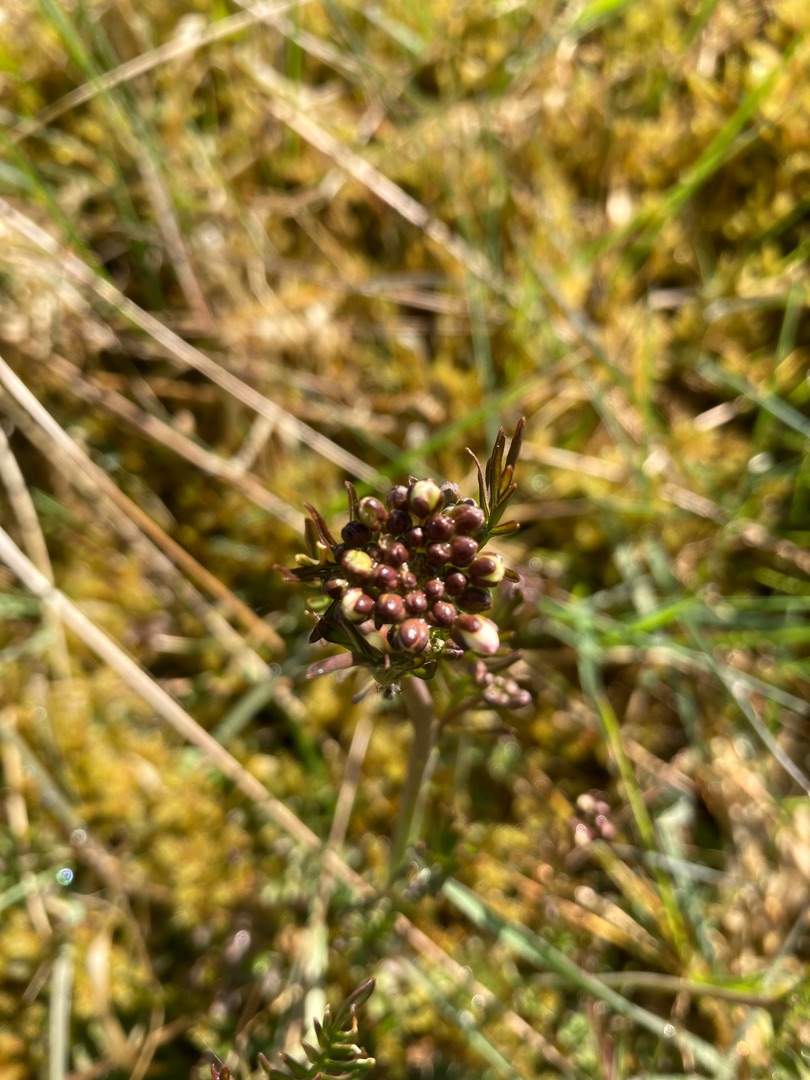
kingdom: Plantae
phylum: Tracheophyta
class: Magnoliopsida
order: Brassicales
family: Brassicaceae
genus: Cardamine
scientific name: Cardamine pratensis
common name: Engkarse
